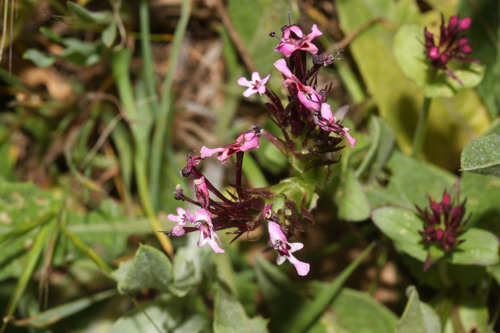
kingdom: Plantae
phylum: Tracheophyta
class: Magnoliopsida
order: Dipsacales
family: Caprifoliaceae
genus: Fedia
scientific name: Fedia cornucopiae
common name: Horn-of-plenty
